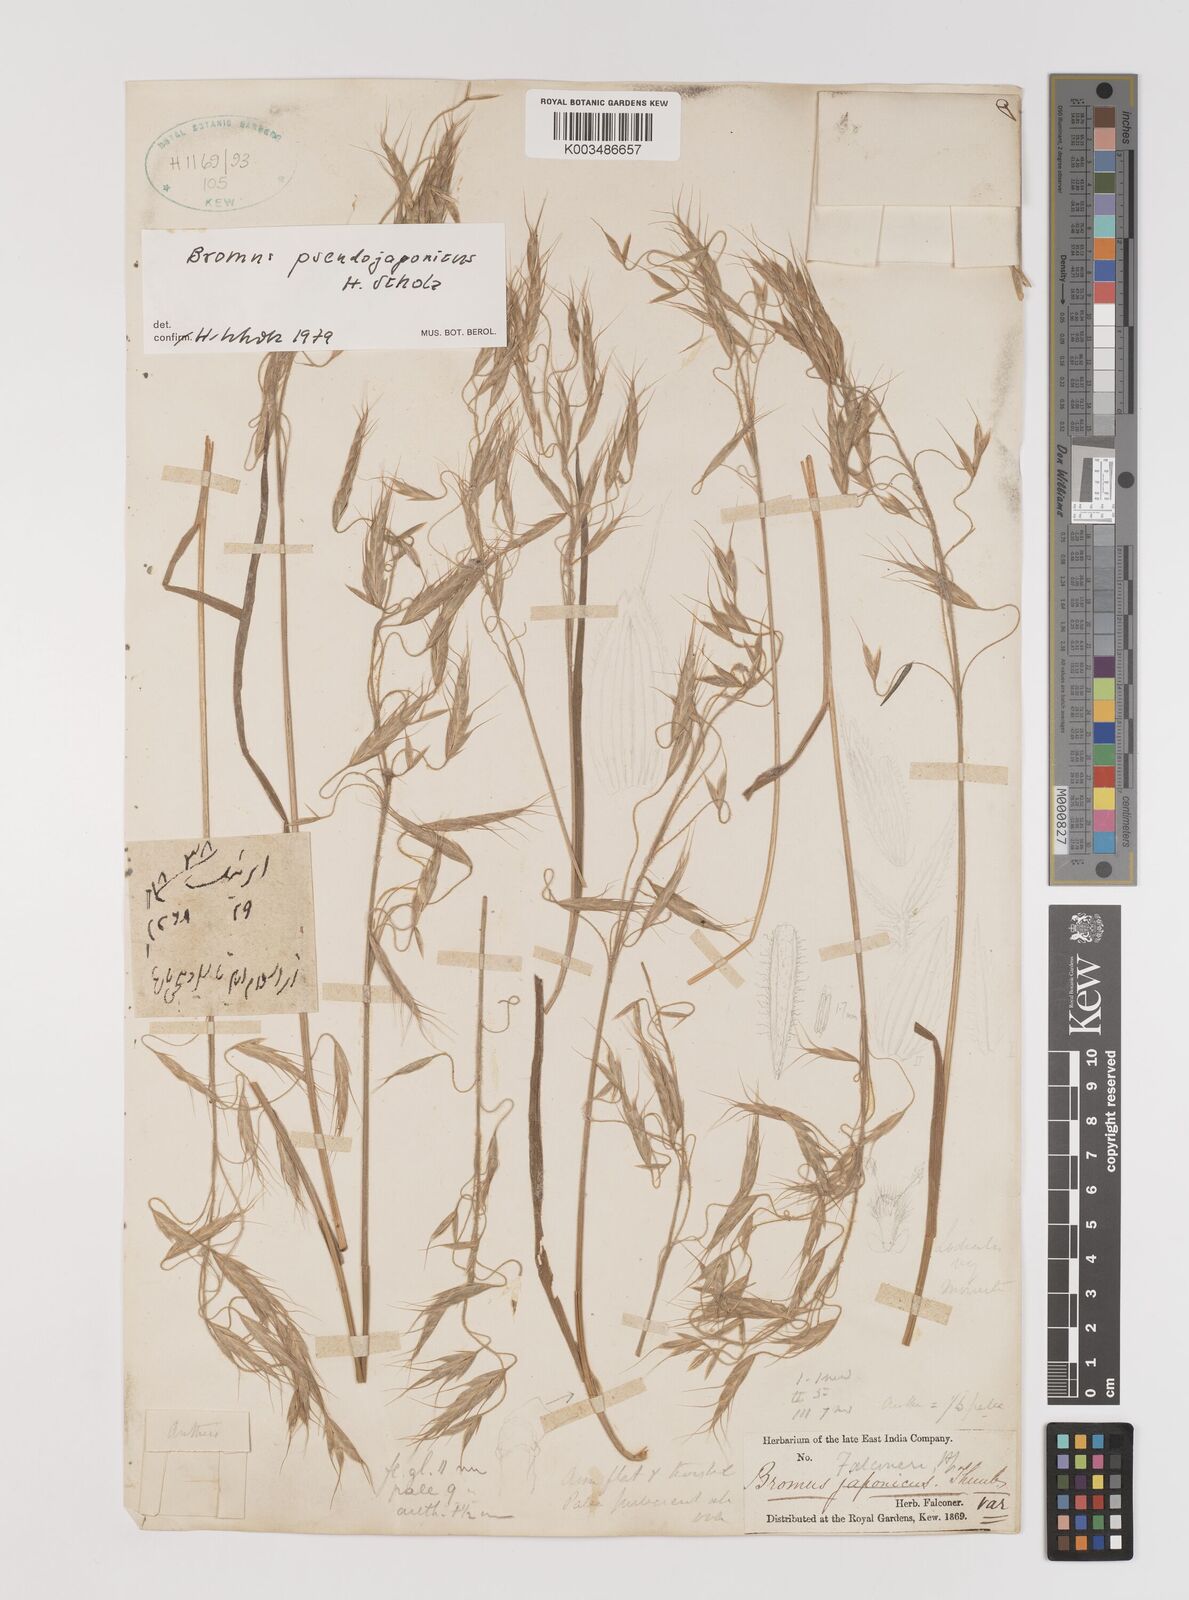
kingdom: Plantae
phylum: Tracheophyta
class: Liliopsida
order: Poales
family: Poaceae
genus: Bromus
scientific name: Bromus pectinatus
